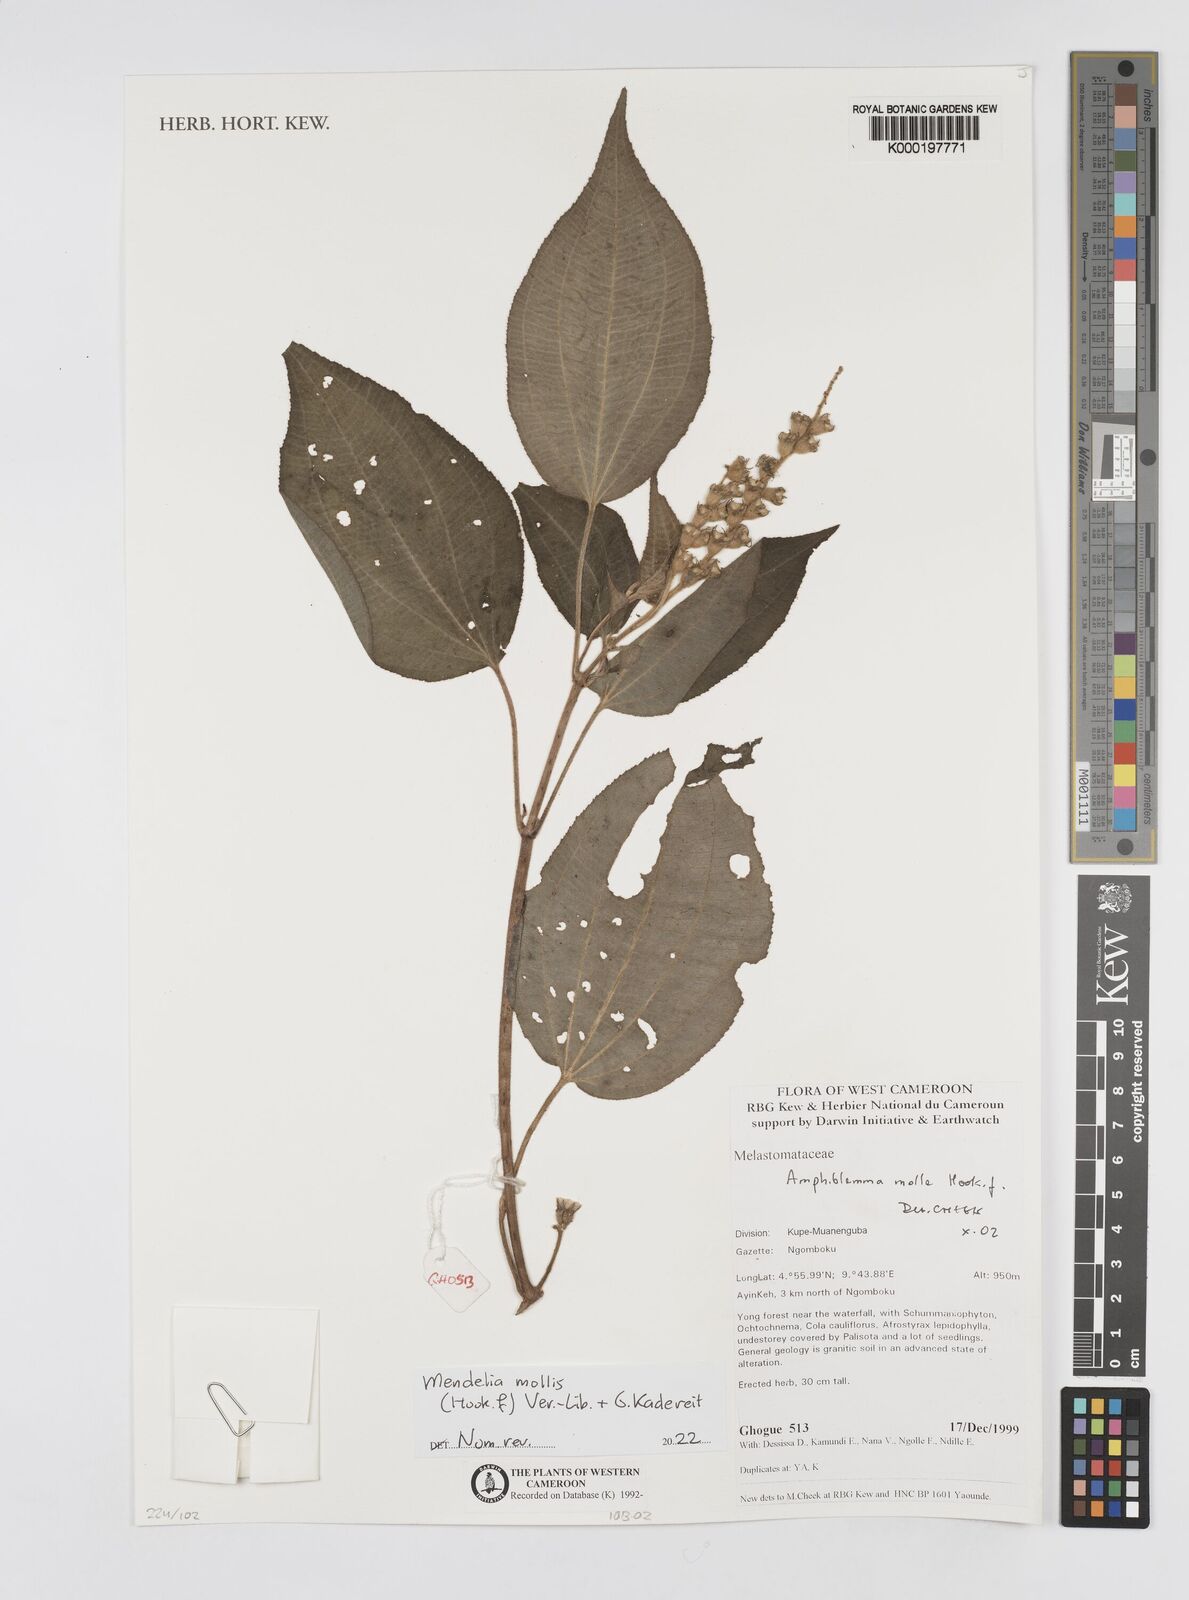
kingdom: Plantae
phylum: Tracheophyta
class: Magnoliopsida
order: Myrtales
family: Melastomataceae
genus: Amphiblemma
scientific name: Amphiblemma molle
